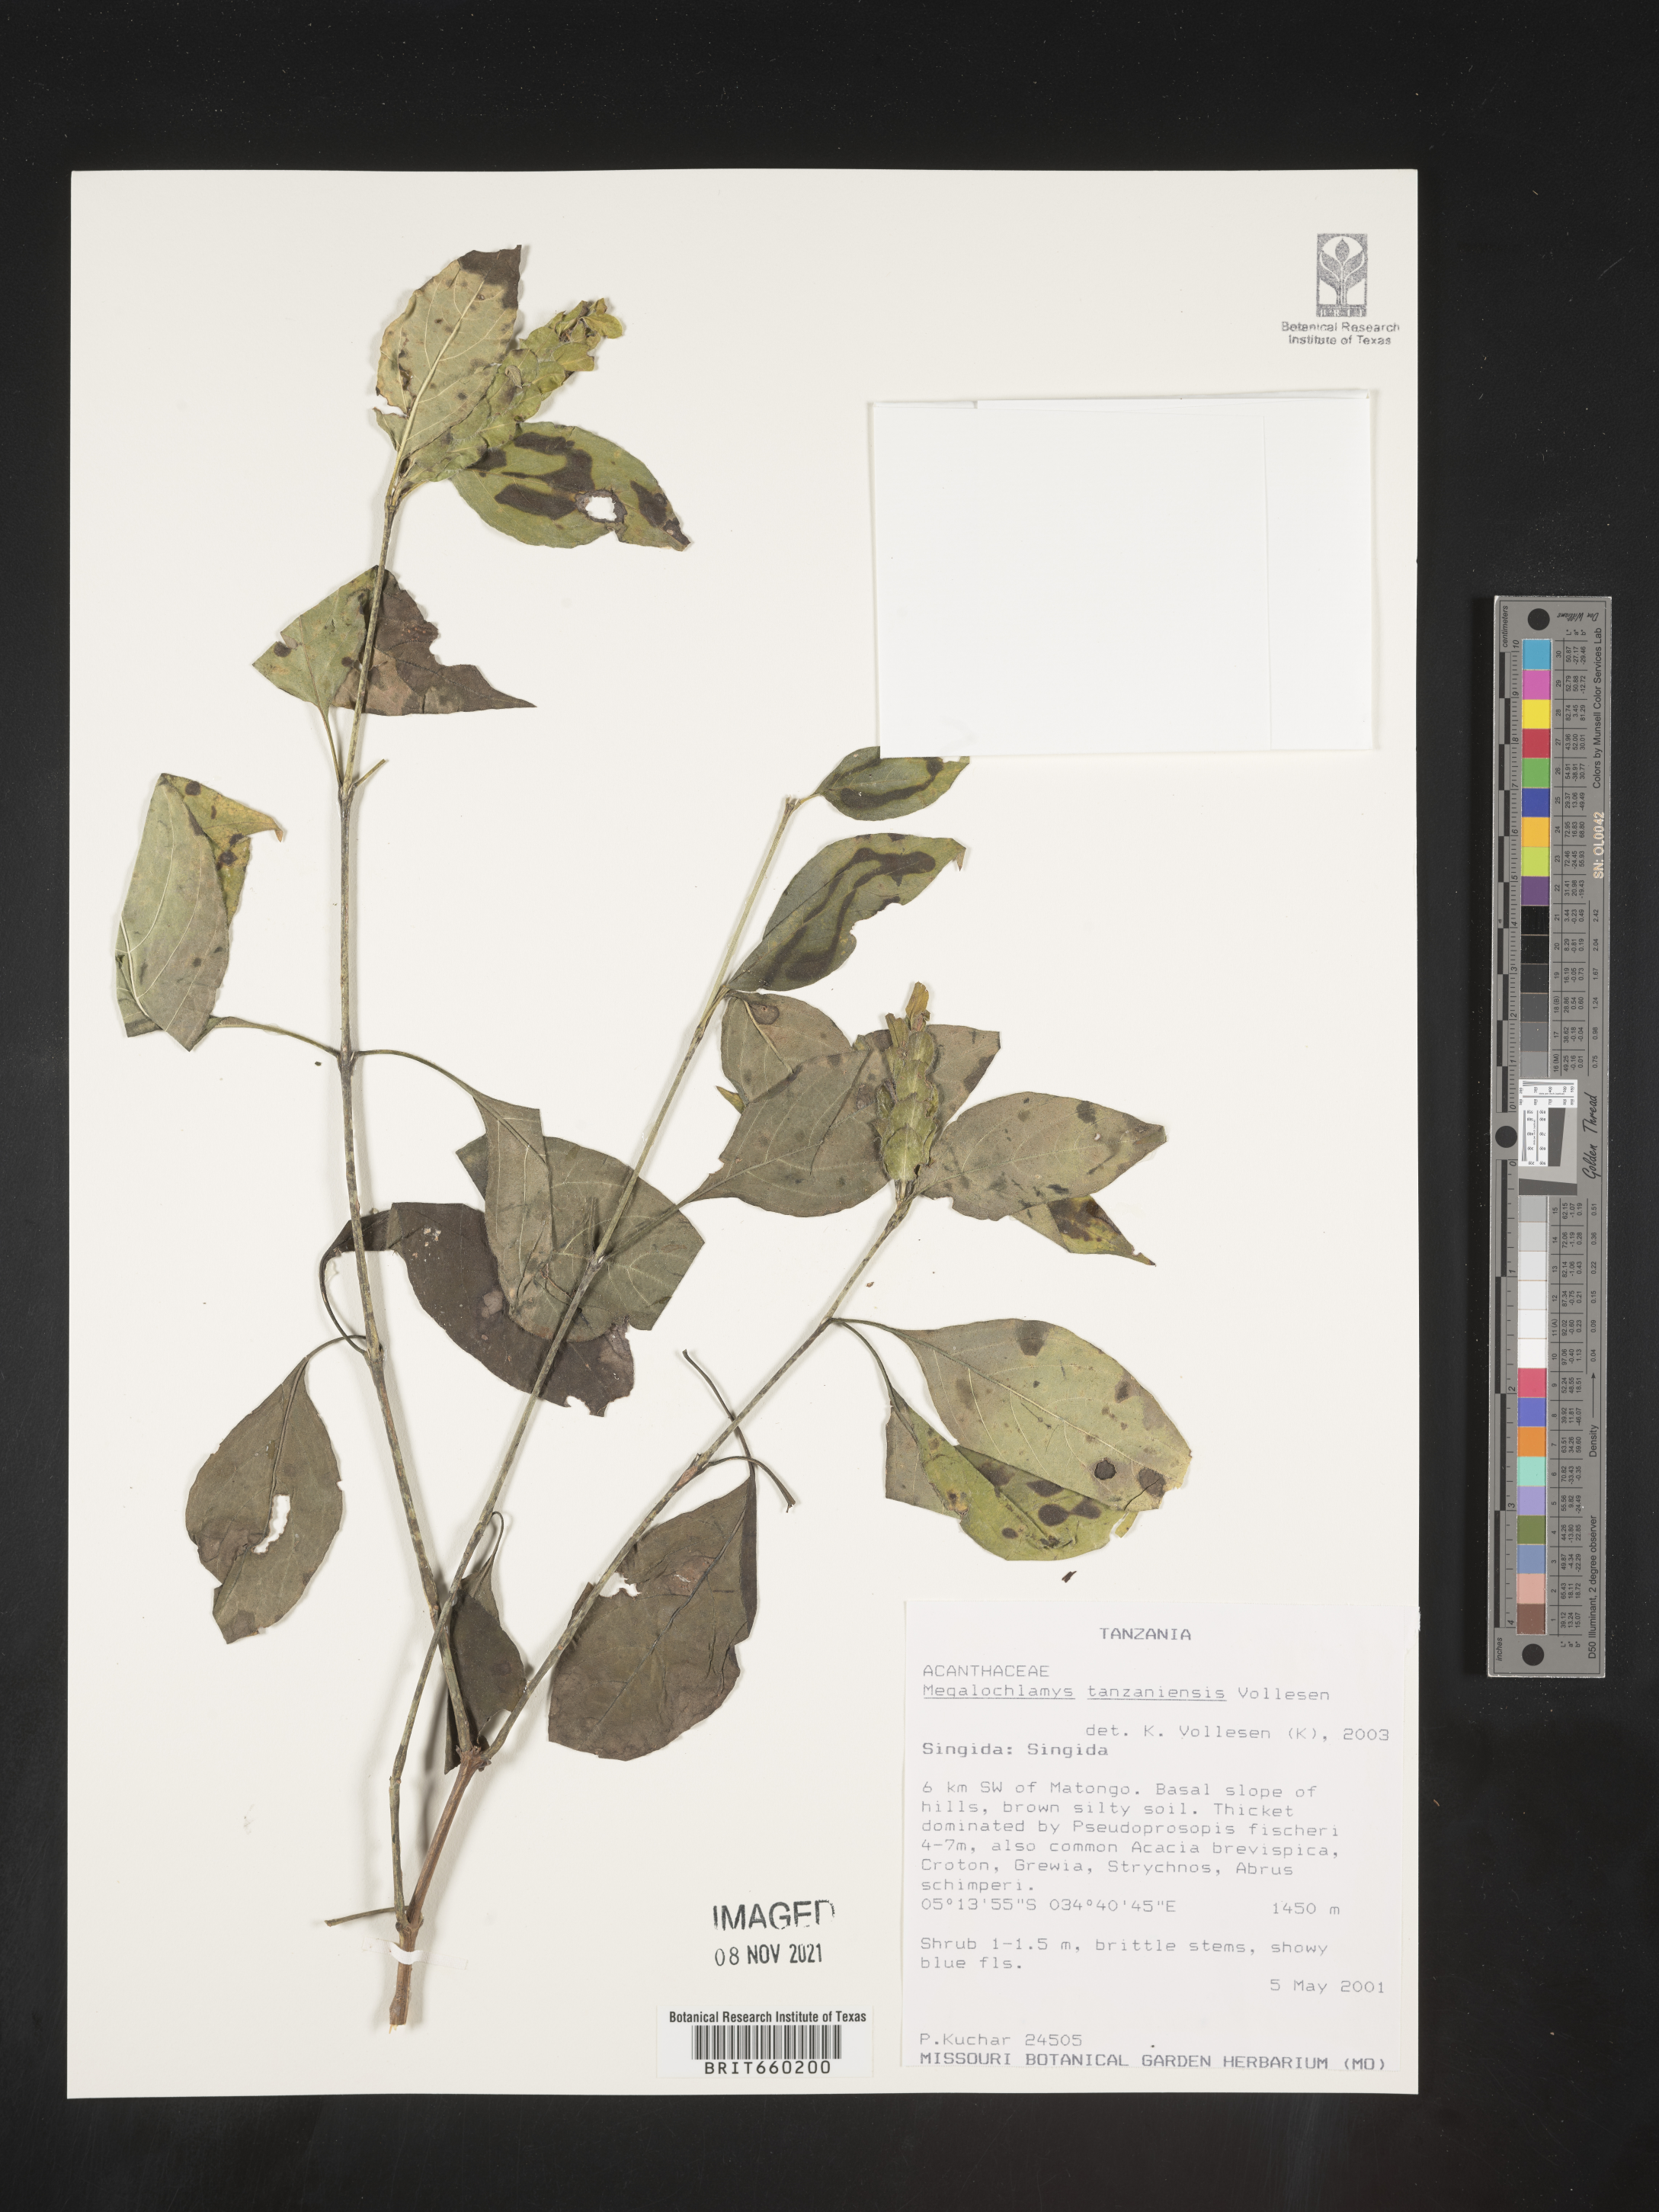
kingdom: Plantae
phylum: Tracheophyta
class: Magnoliopsida
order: Lamiales
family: Acanthaceae
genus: Megalochlamys
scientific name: Megalochlamys
